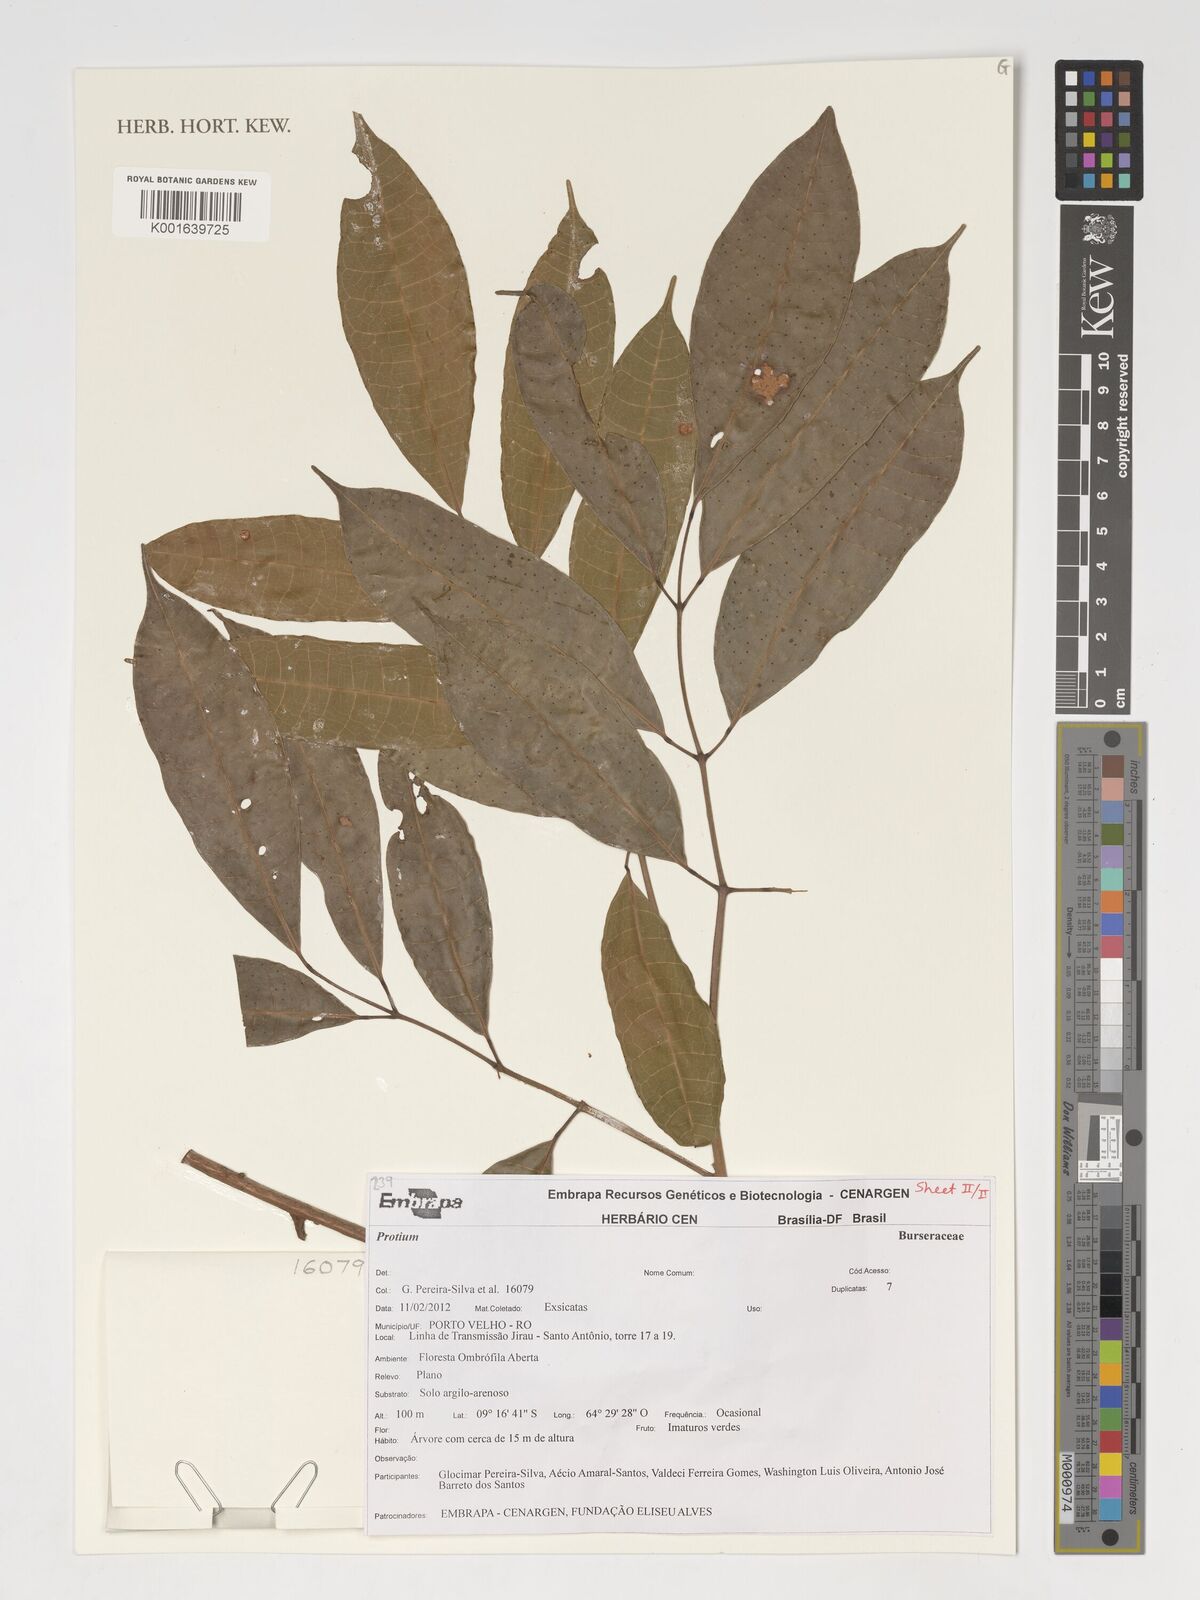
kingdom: Plantae
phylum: Tracheophyta
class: Magnoliopsida
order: Sapindales
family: Burseraceae
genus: Protium
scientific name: Protium
